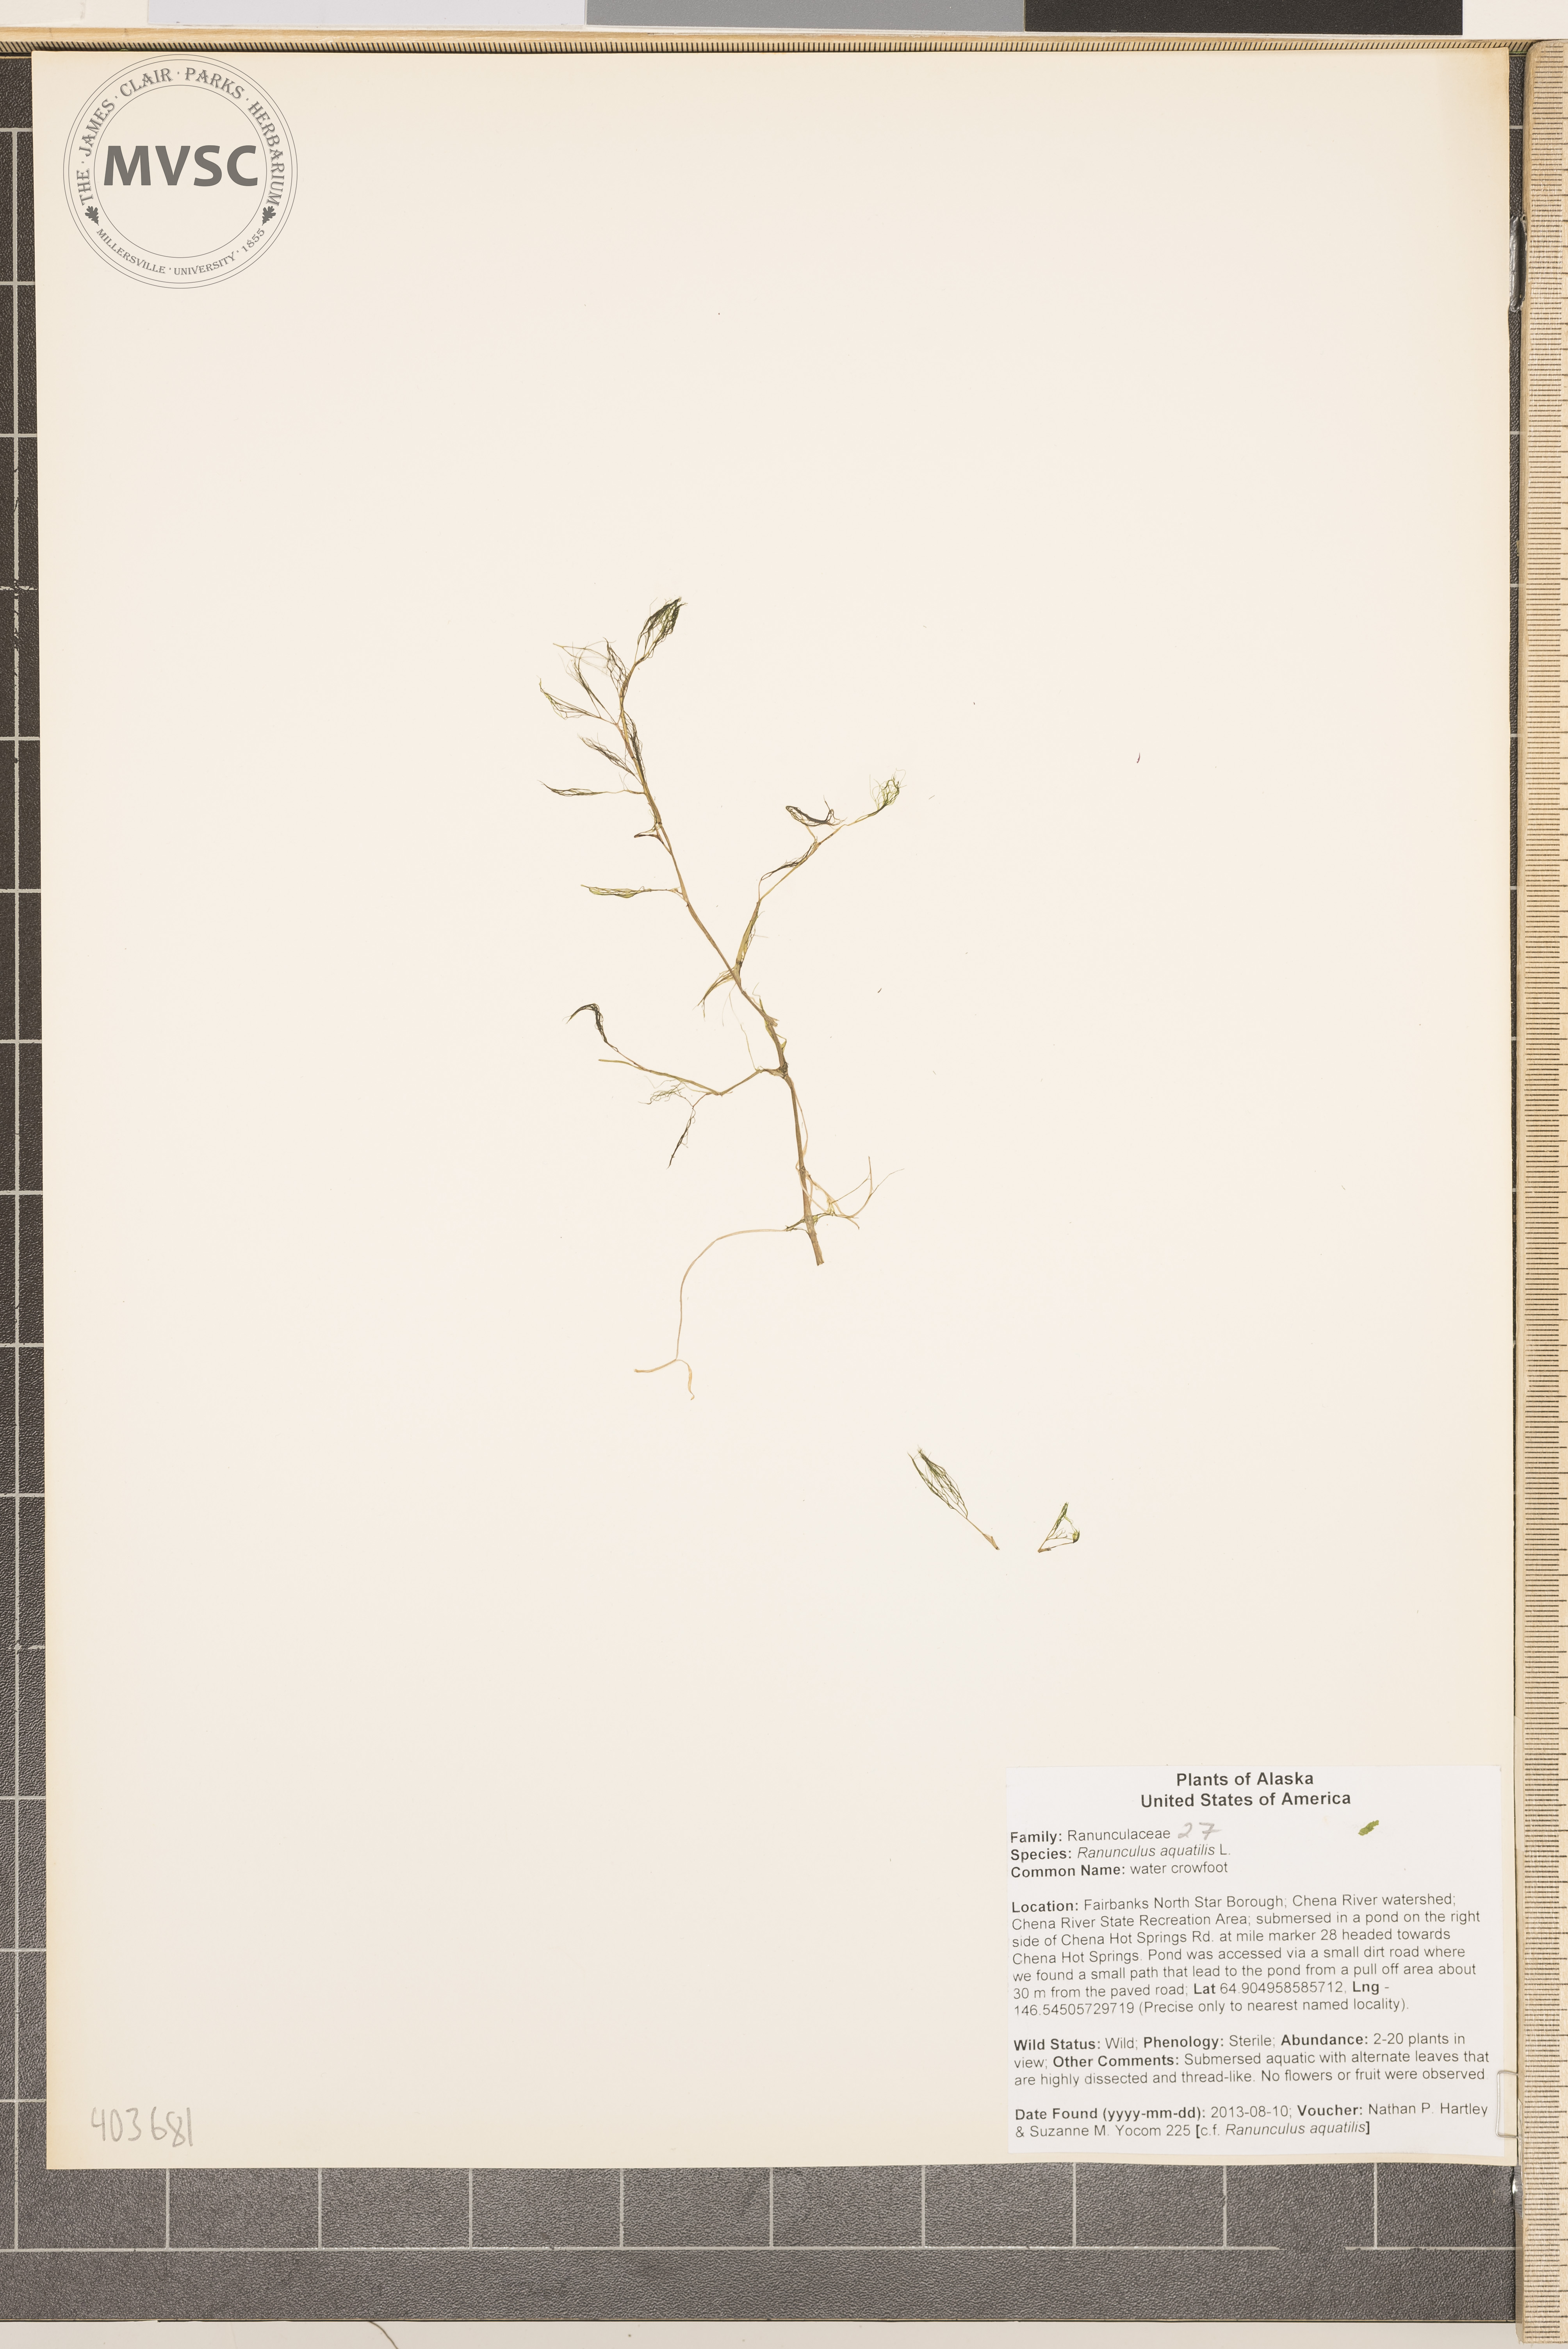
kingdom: Plantae
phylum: Tracheophyta
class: Magnoliopsida
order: Ranunculales
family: Ranunculaceae
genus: Ranunculus
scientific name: Ranunculus aquatilis
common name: water crowfoot
